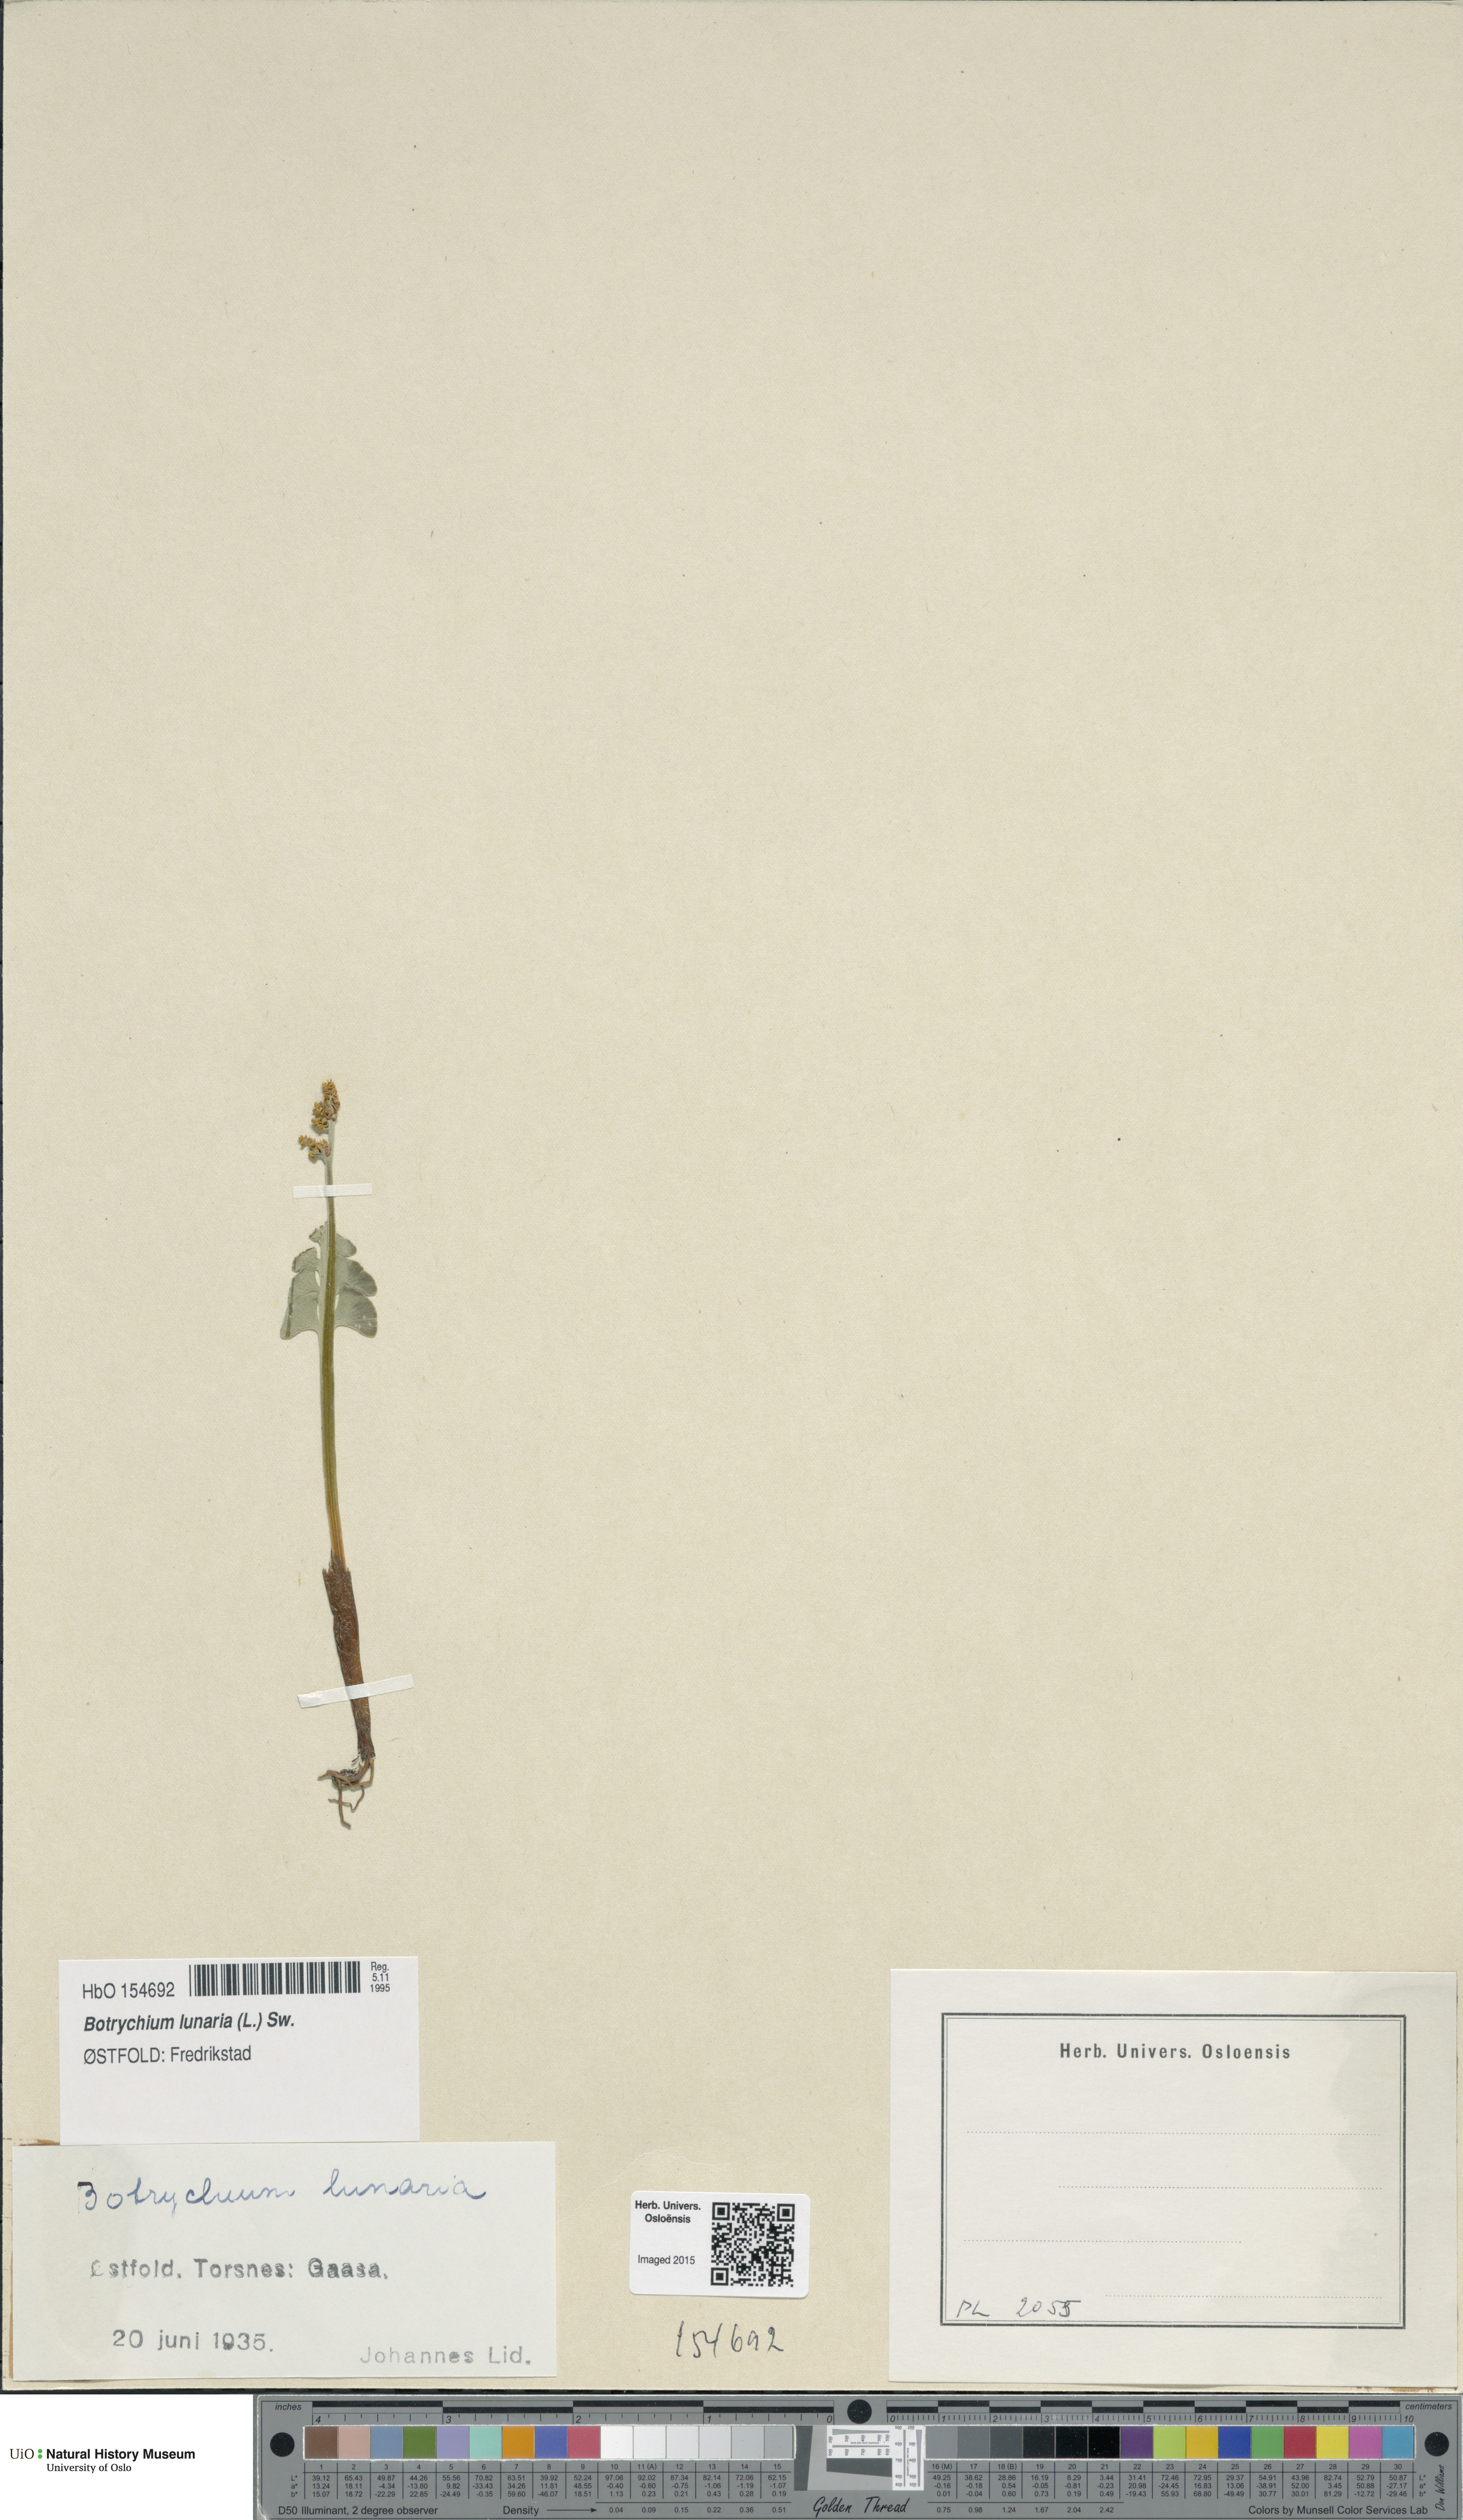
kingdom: Plantae
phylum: Tracheophyta
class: Polypodiopsida
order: Ophioglossales
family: Ophioglossaceae
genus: Botrychium
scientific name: Botrychium lunaria
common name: Moonwort
